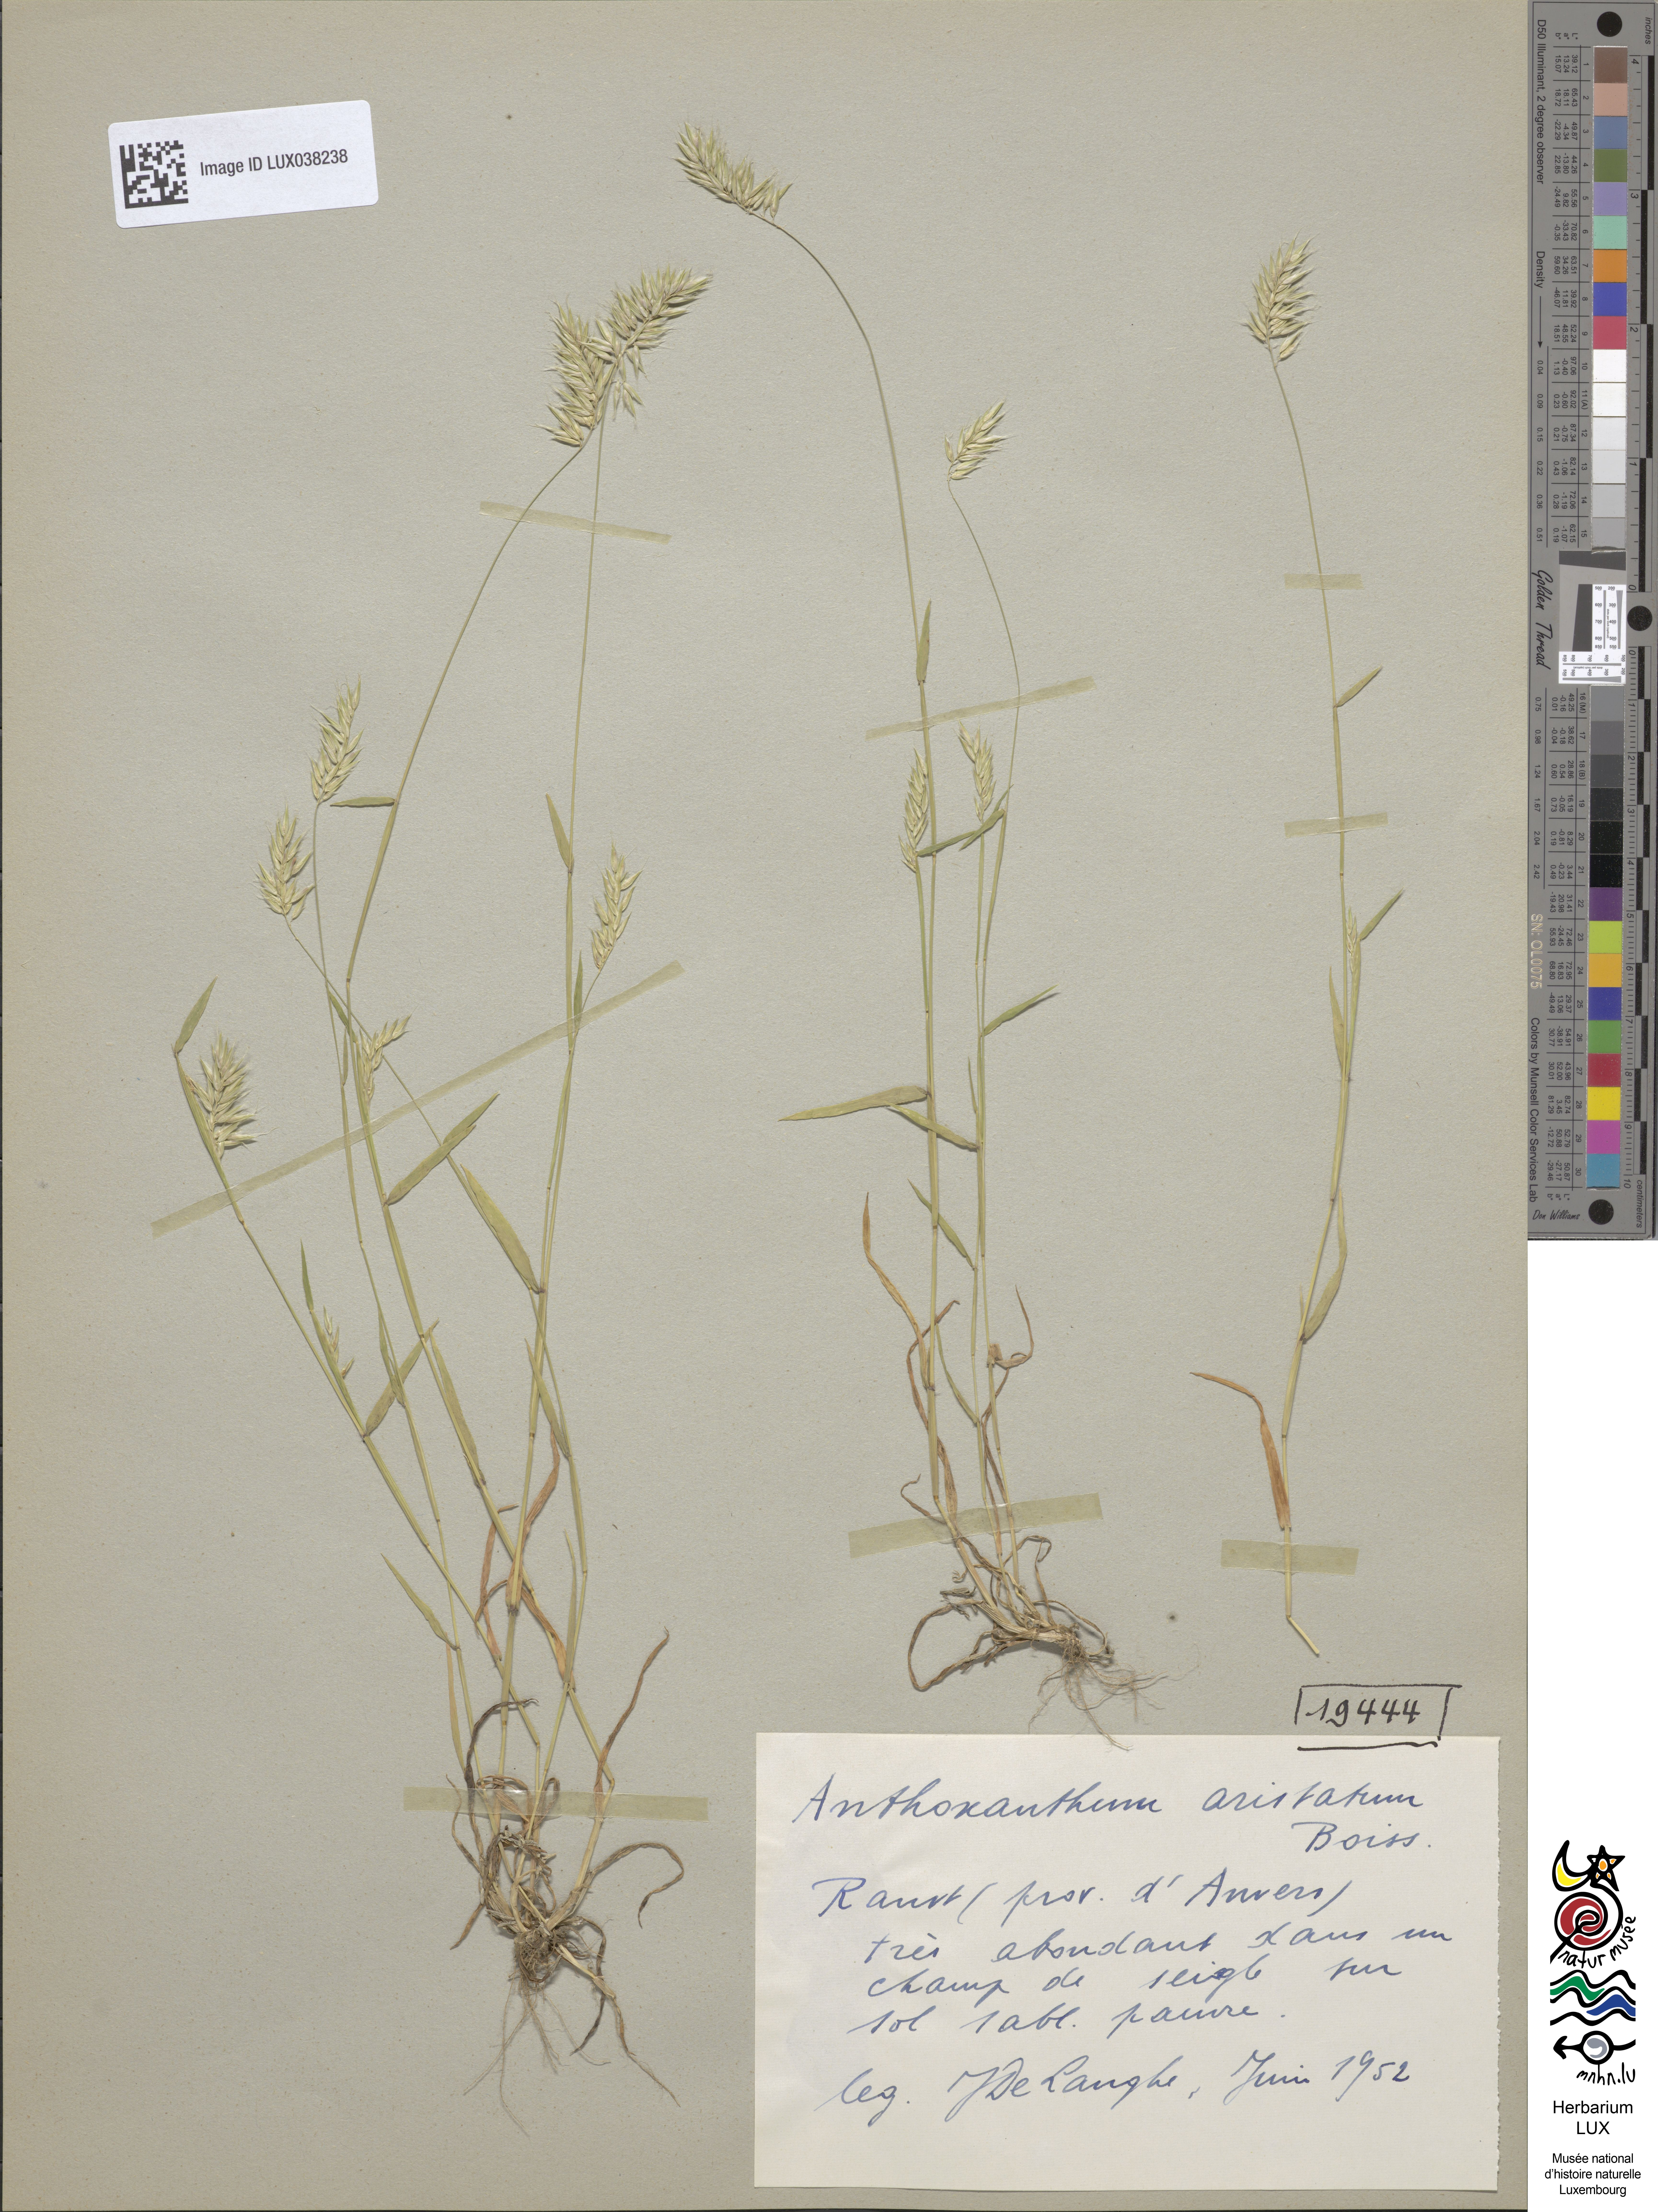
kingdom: Plantae
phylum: Tracheophyta
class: Liliopsida
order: Poales
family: Poaceae
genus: Anthoxanthum
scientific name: Anthoxanthum aristatum
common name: Annual vernal-grass
